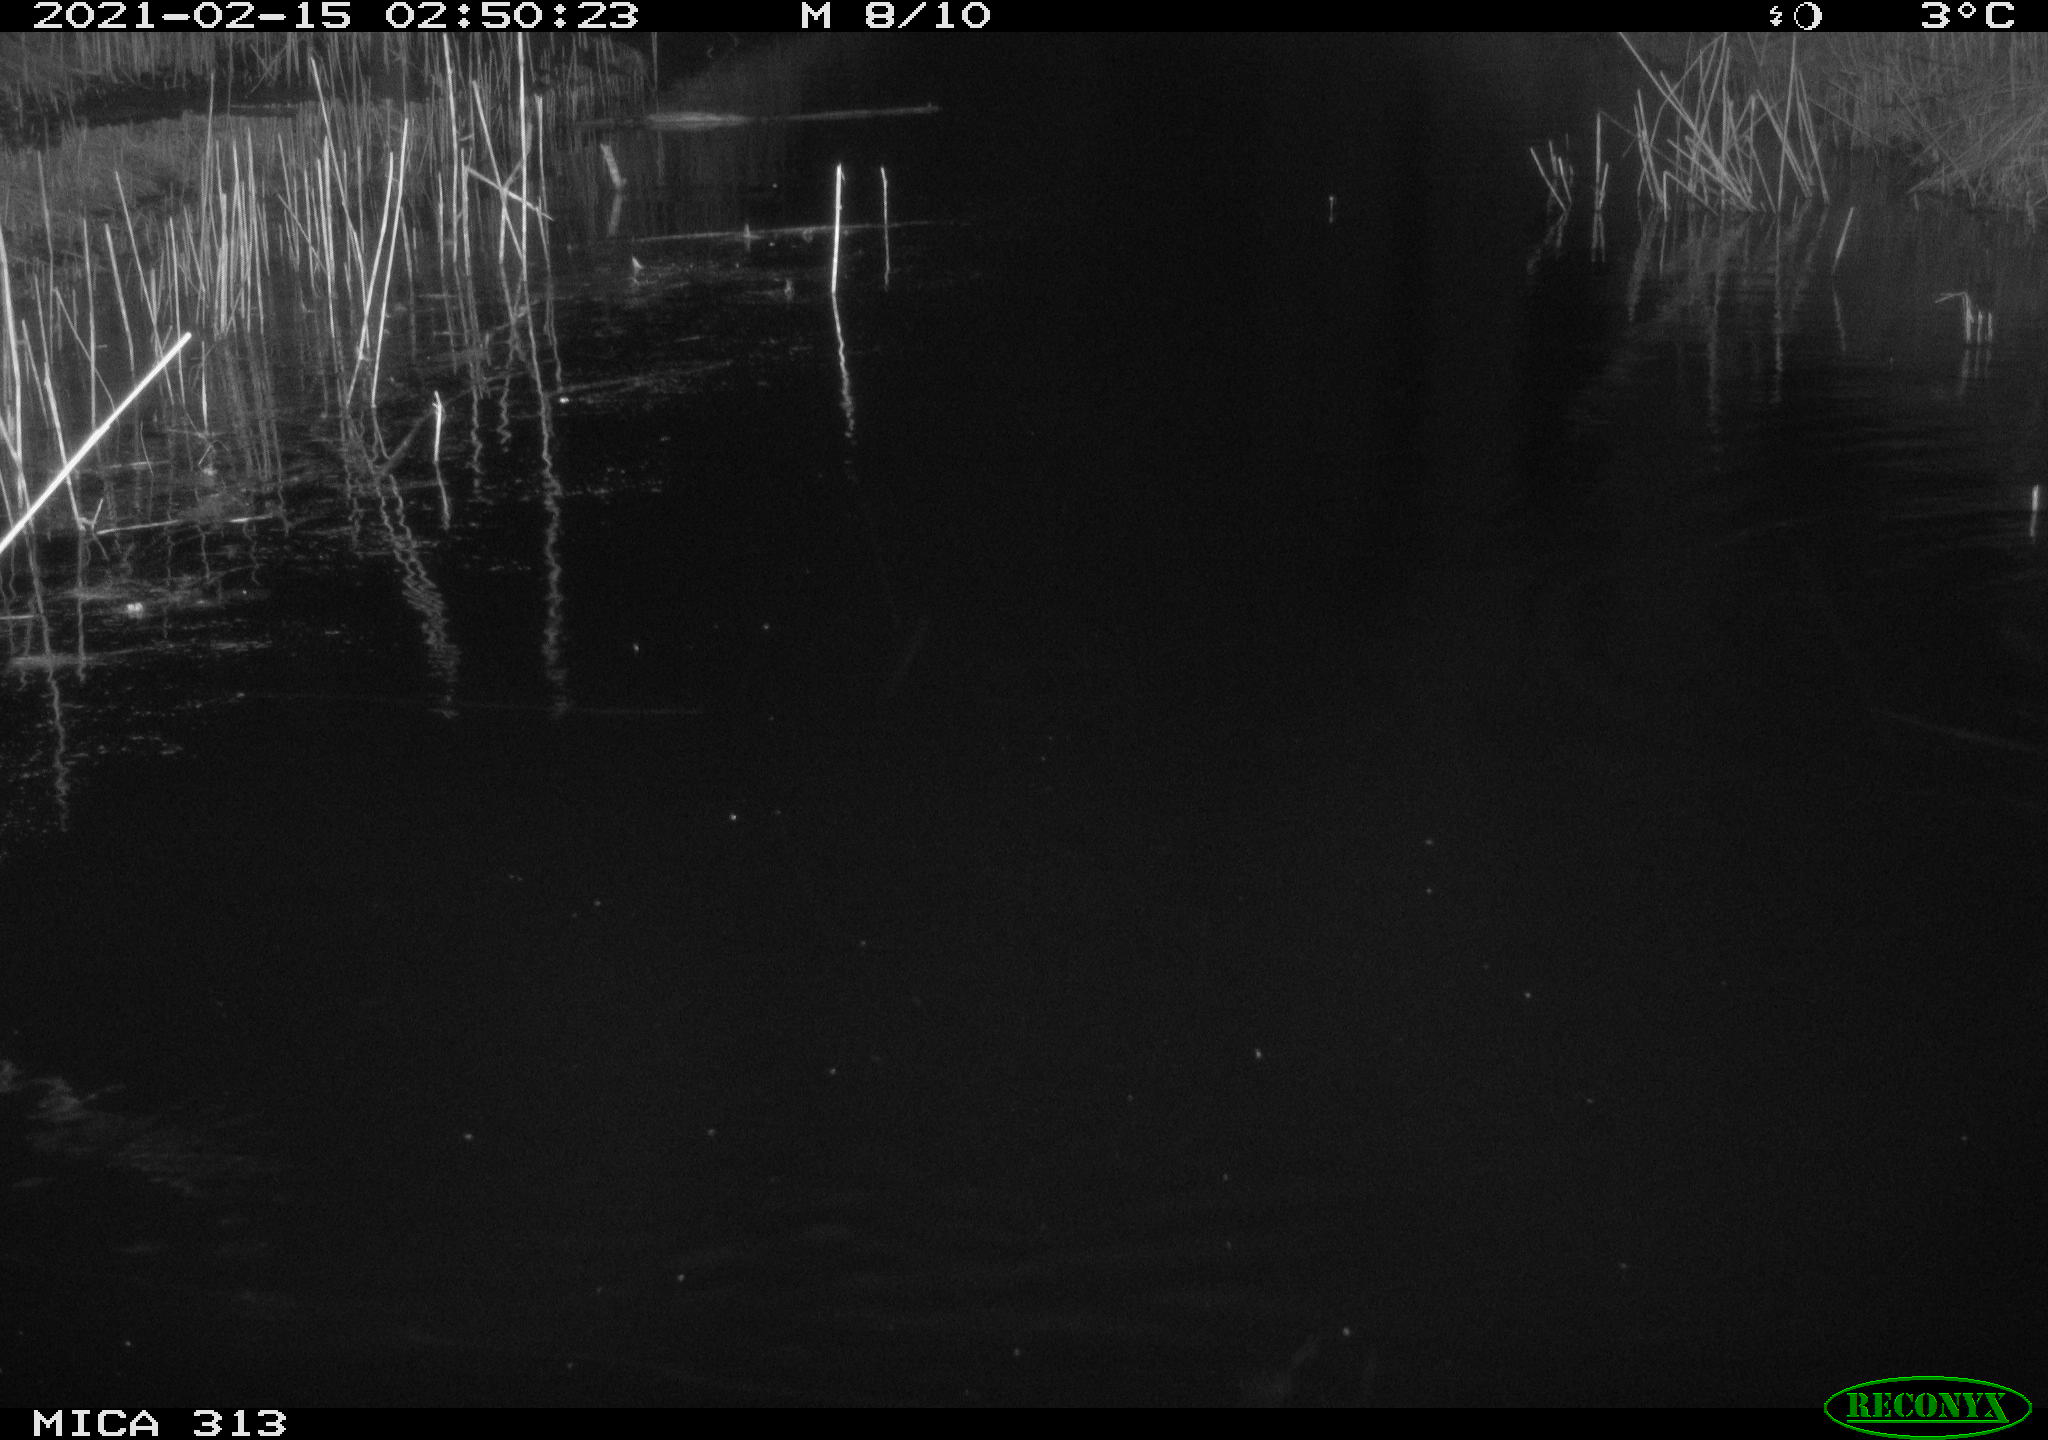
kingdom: Animalia
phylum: Chordata
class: Aves
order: Gruiformes
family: Rallidae
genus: Gallinula
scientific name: Gallinula chloropus
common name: Common moorhen
